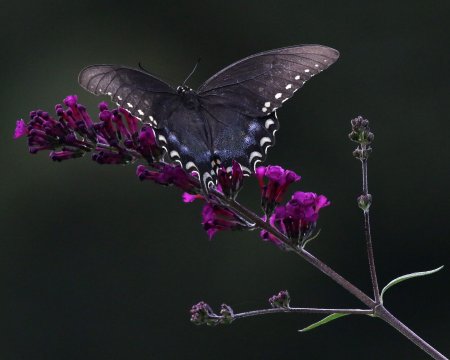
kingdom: Animalia
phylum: Arthropoda
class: Insecta
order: Lepidoptera
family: Papilionidae
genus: Pterourus
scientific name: Pterourus troilus
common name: Spicebush Swallowtail
